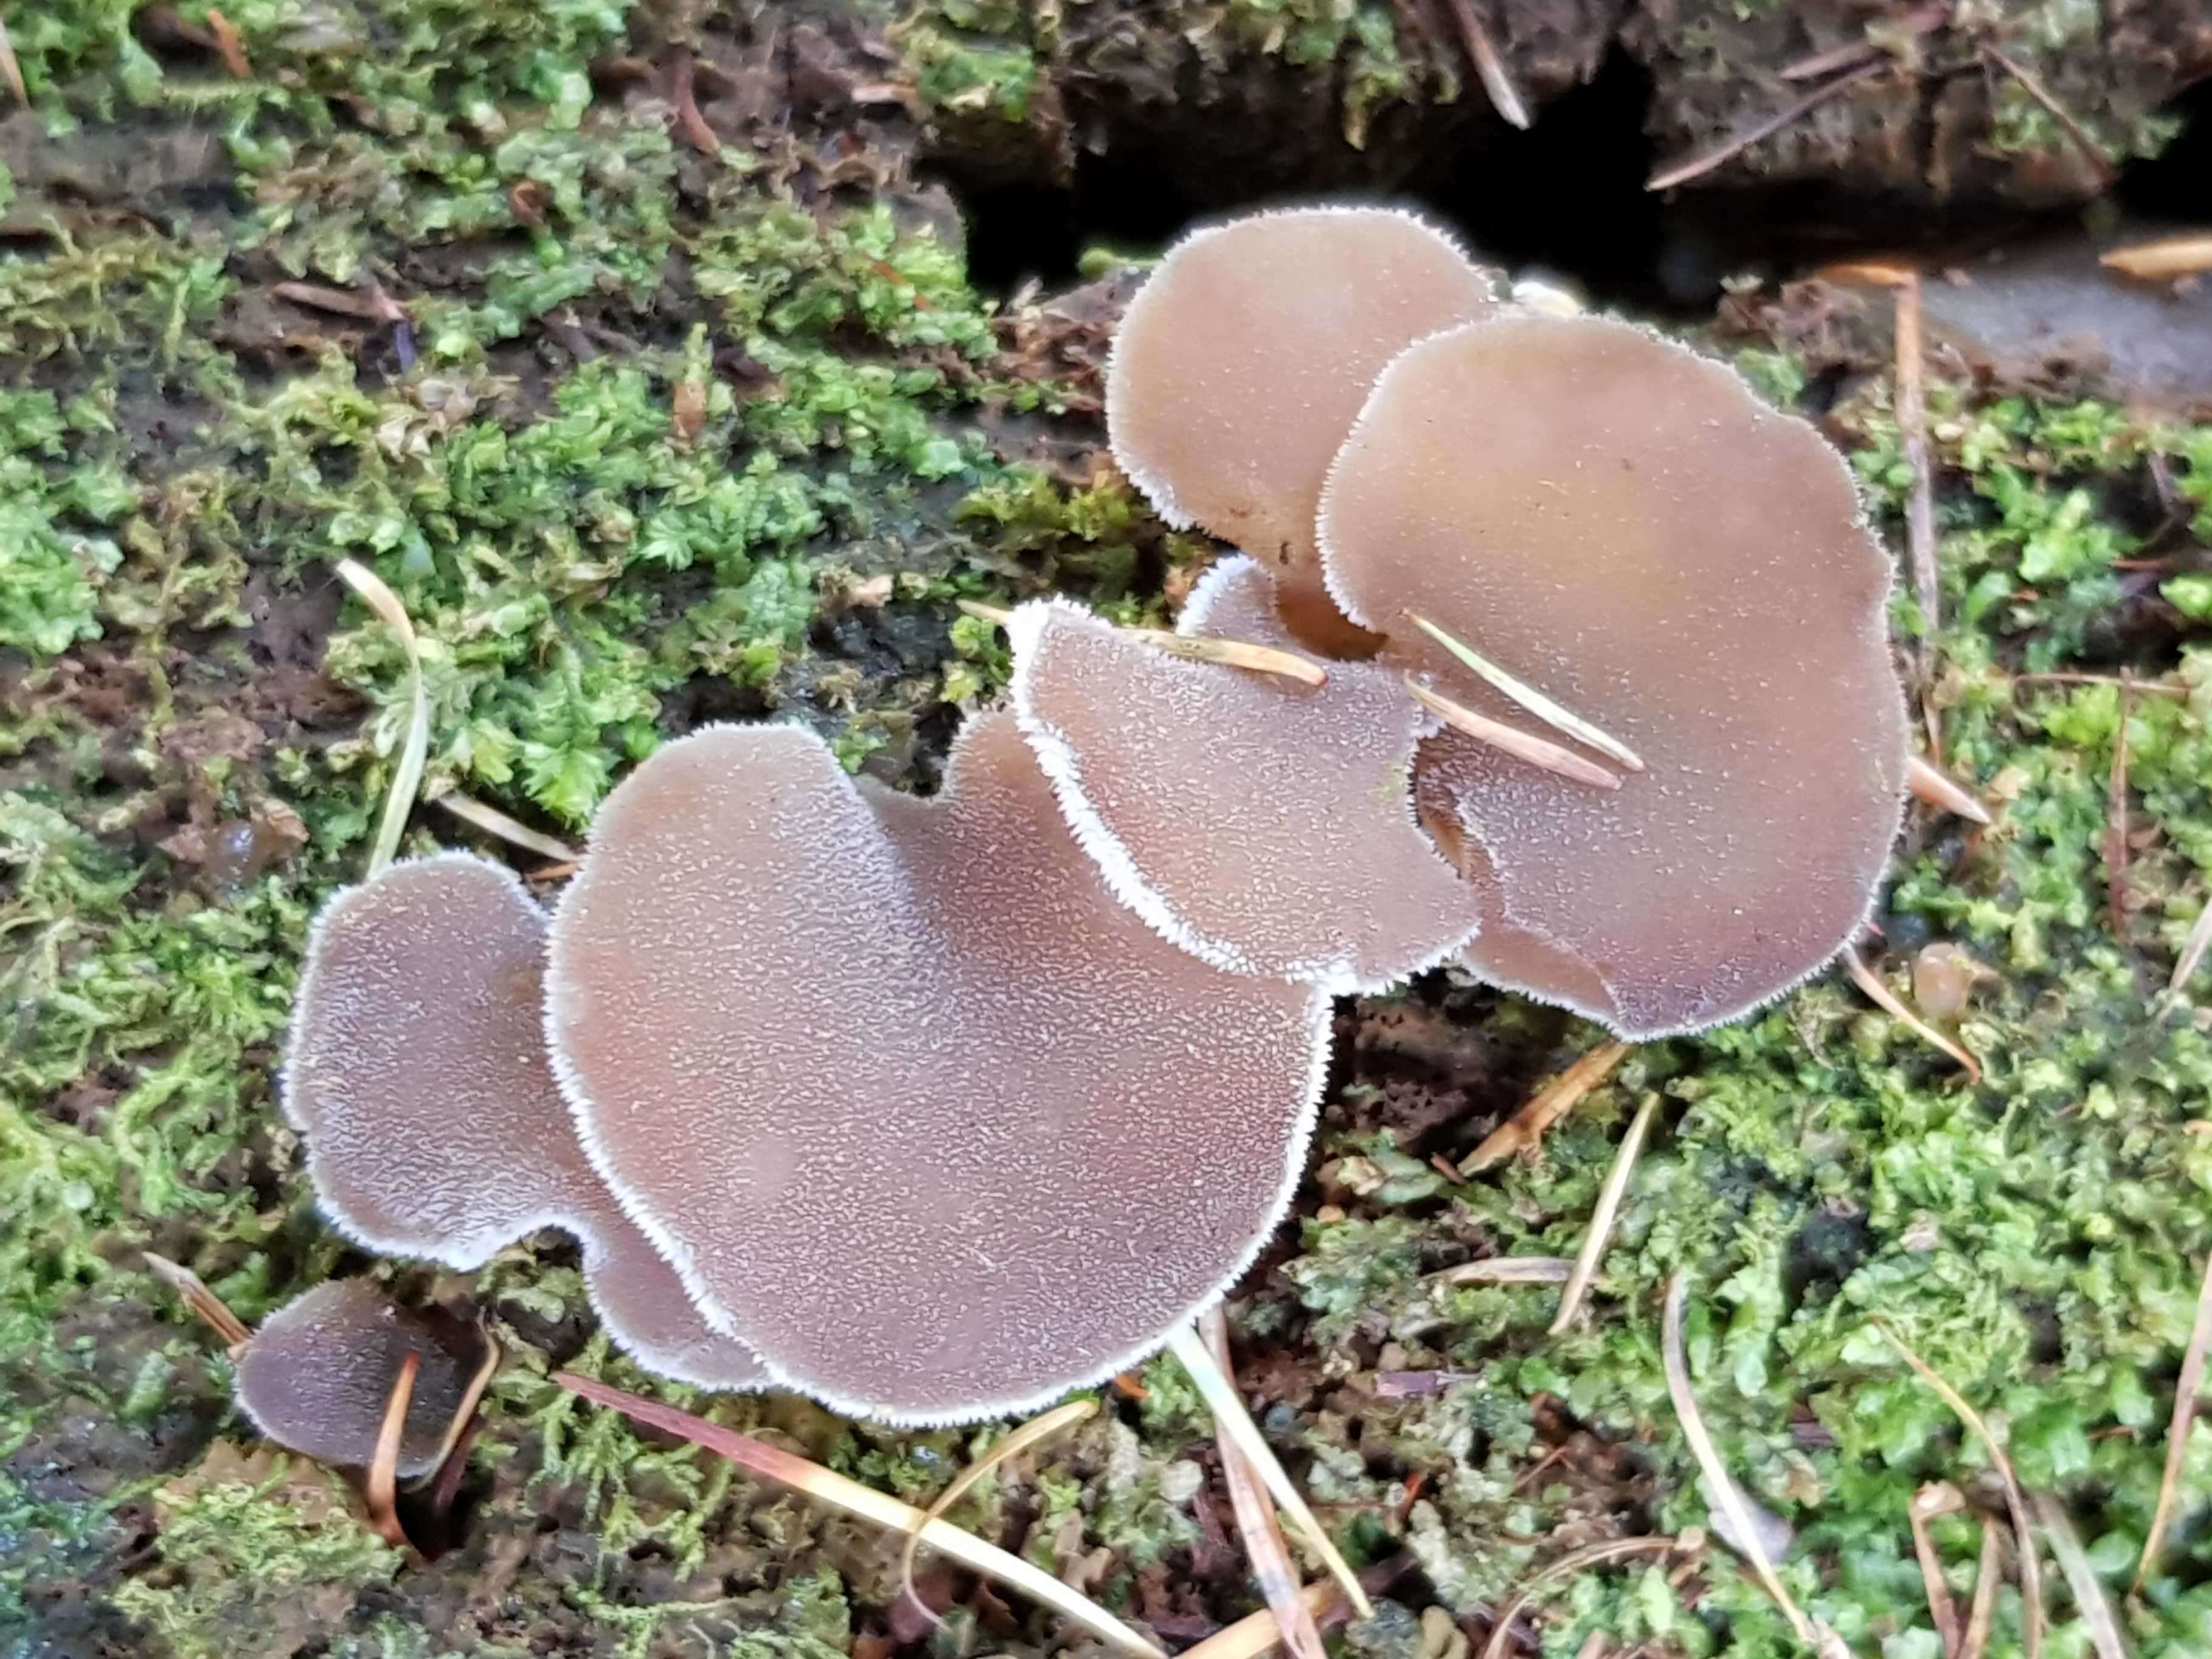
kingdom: Fungi
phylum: Basidiomycota
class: Agaricomycetes
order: Auriculariales
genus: Pseudohydnum
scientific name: Pseudohydnum gelatinosum
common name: bævretand
